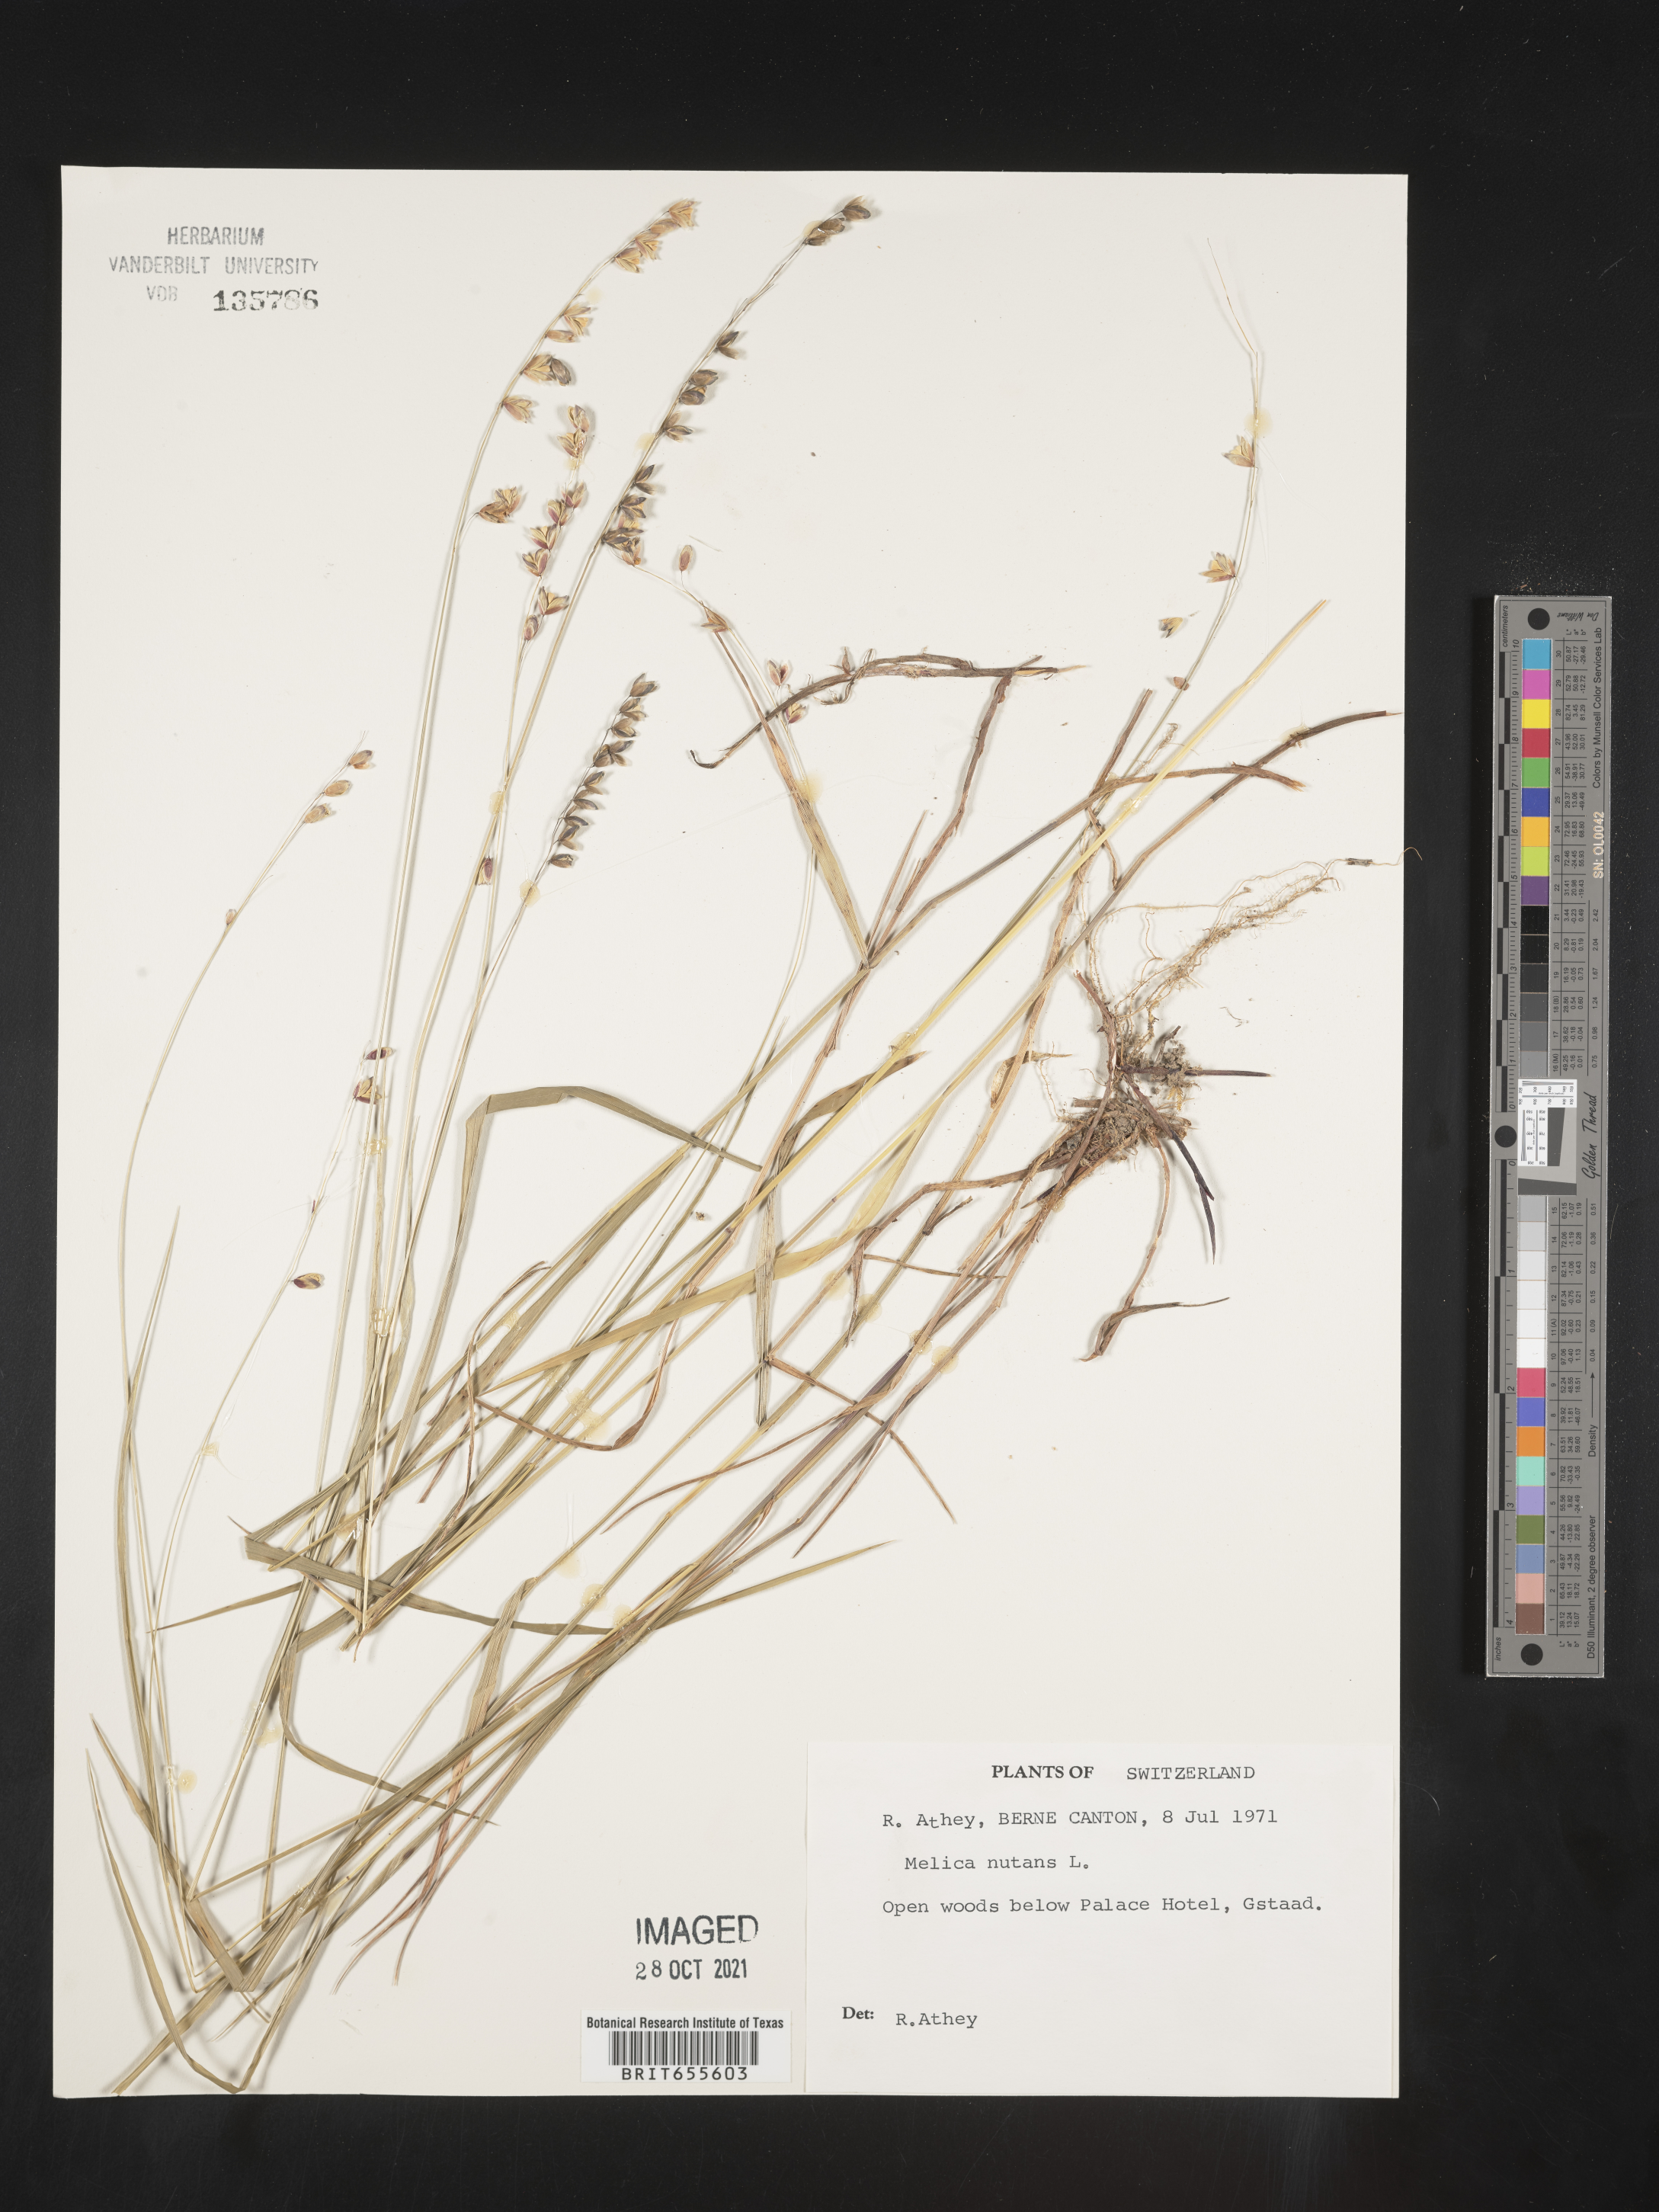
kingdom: Plantae
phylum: Tracheophyta
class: Liliopsida
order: Poales
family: Poaceae
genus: Melica
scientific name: Melica
